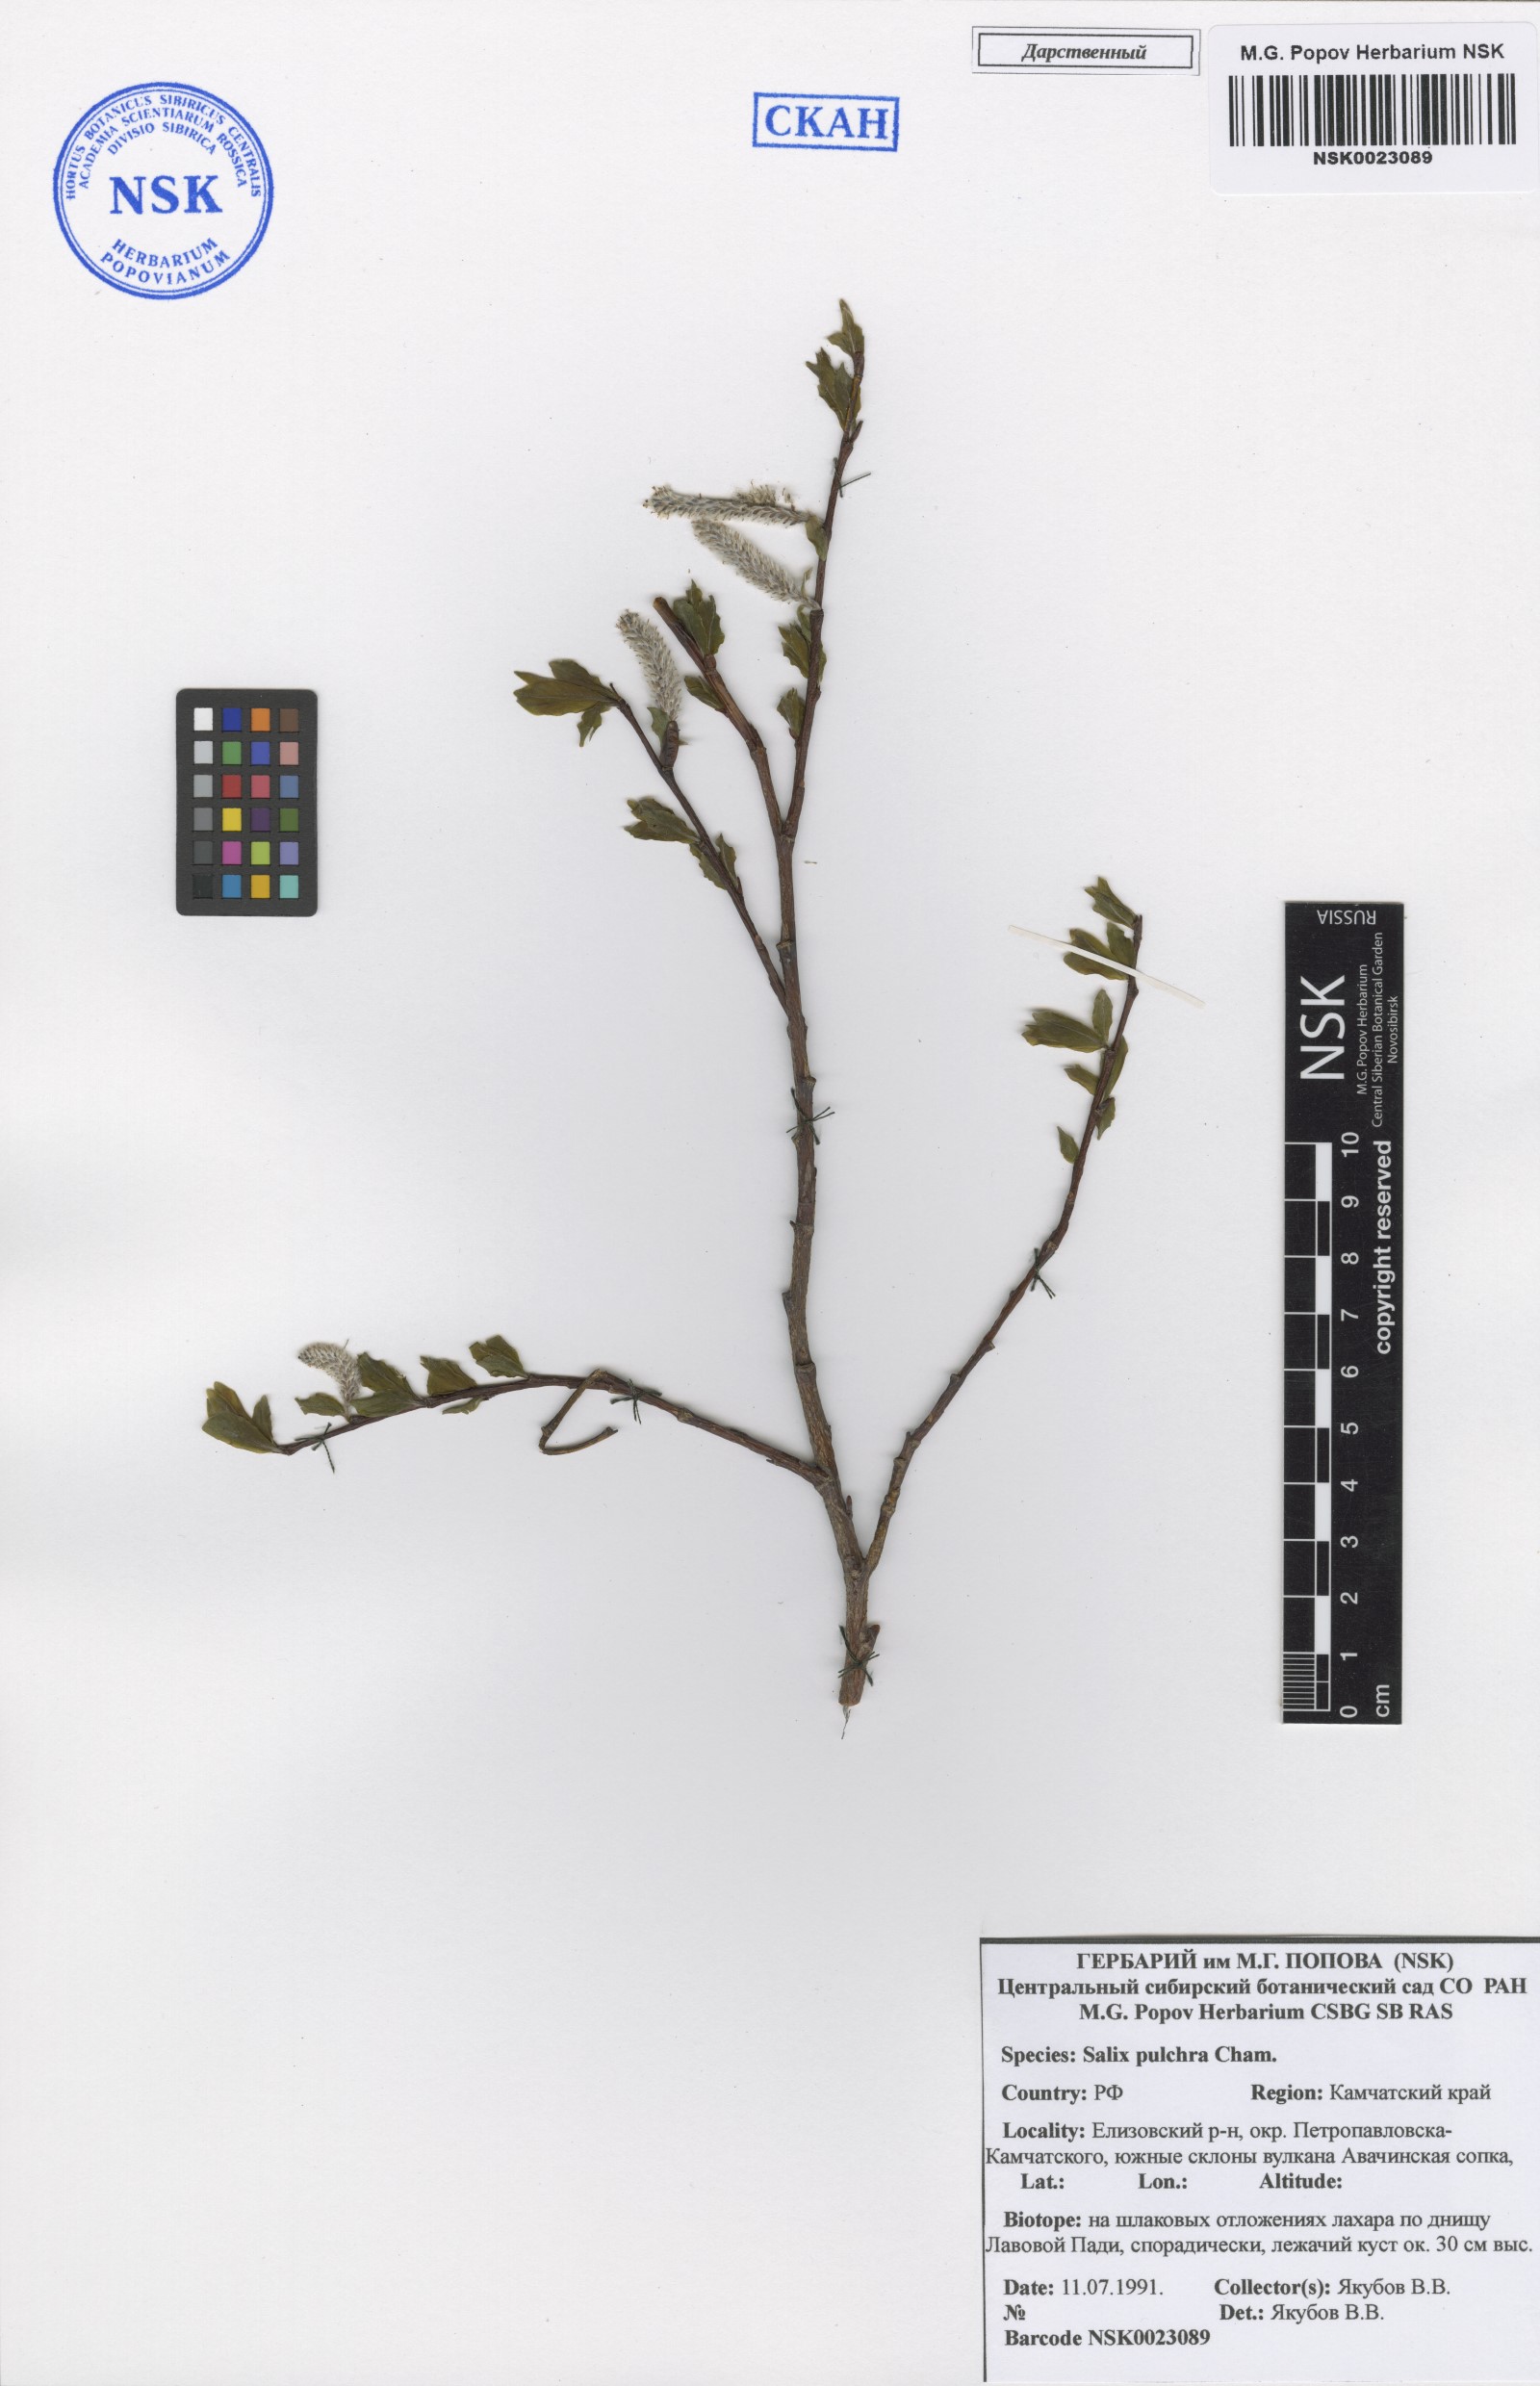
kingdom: Plantae
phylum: Tracheophyta
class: Magnoliopsida
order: Malpighiales
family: Salicaceae
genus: Salix
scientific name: Salix pulchra
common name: Diamond-leaved willow
